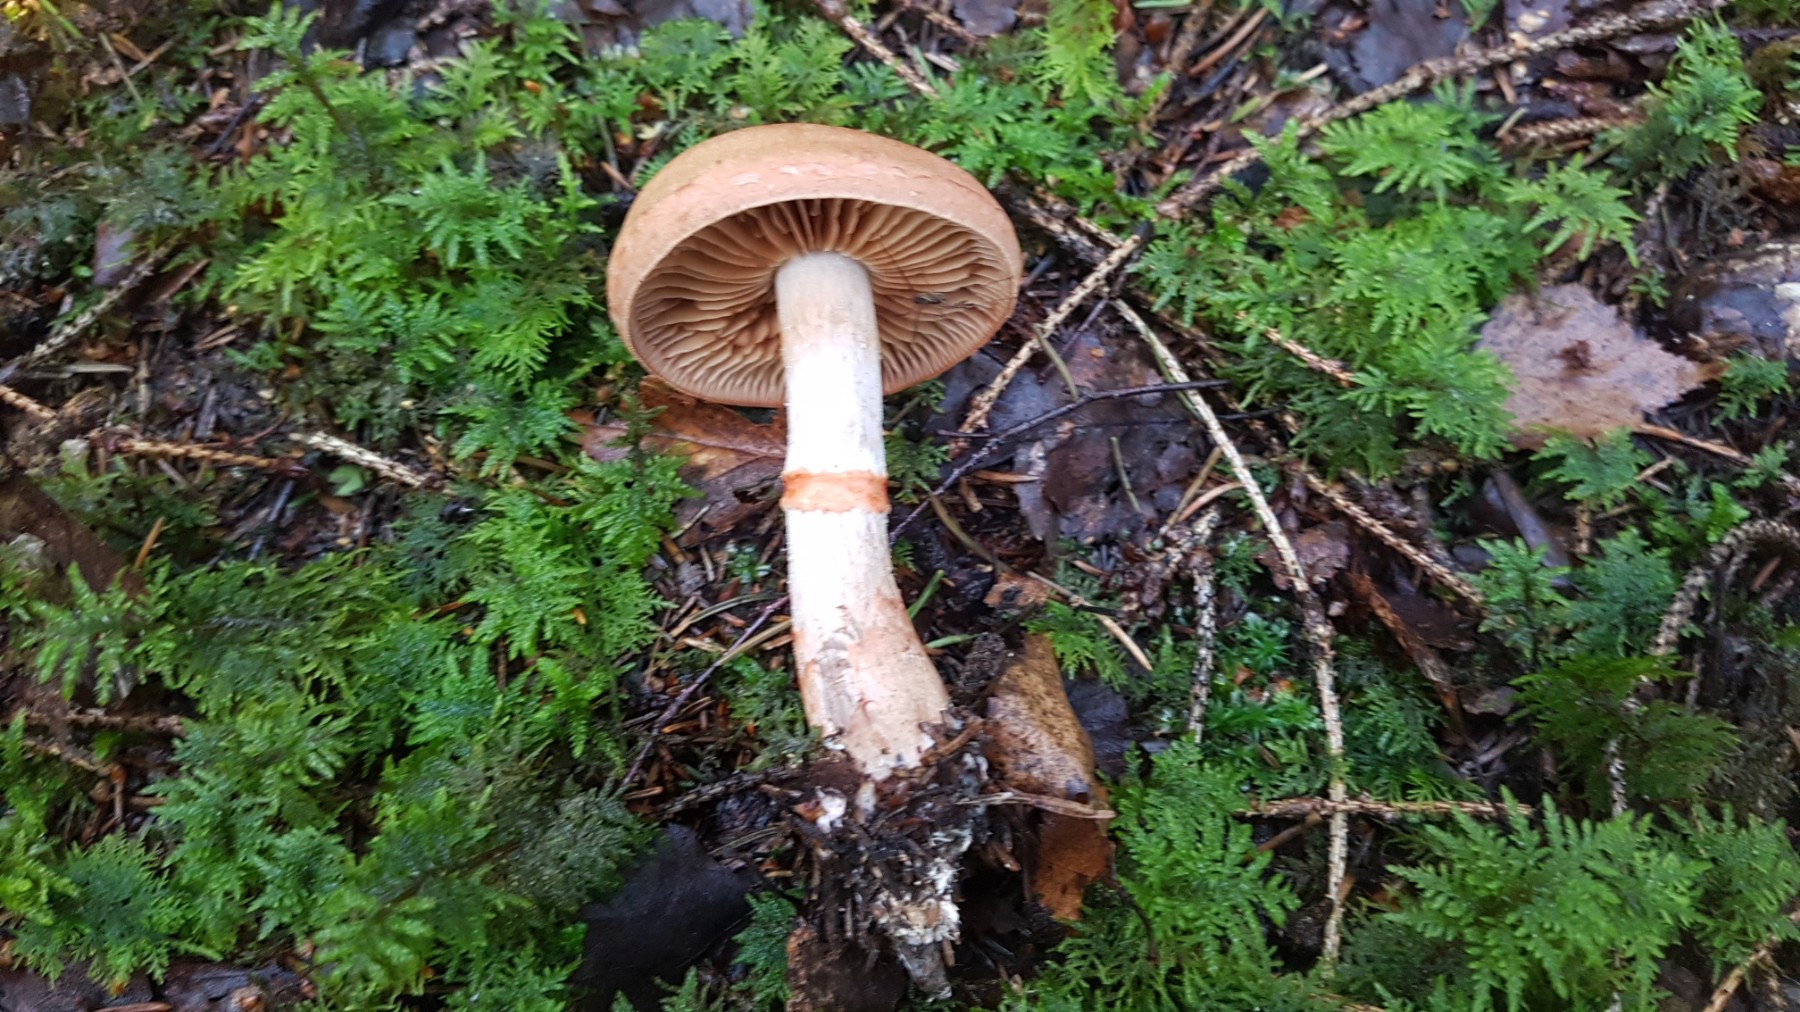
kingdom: Fungi
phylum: Basidiomycota
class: Agaricomycetes
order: Agaricales
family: Cortinariaceae
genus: Cortinarius
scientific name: Cortinarius armillatus
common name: cinnoberbæltet slørhat
